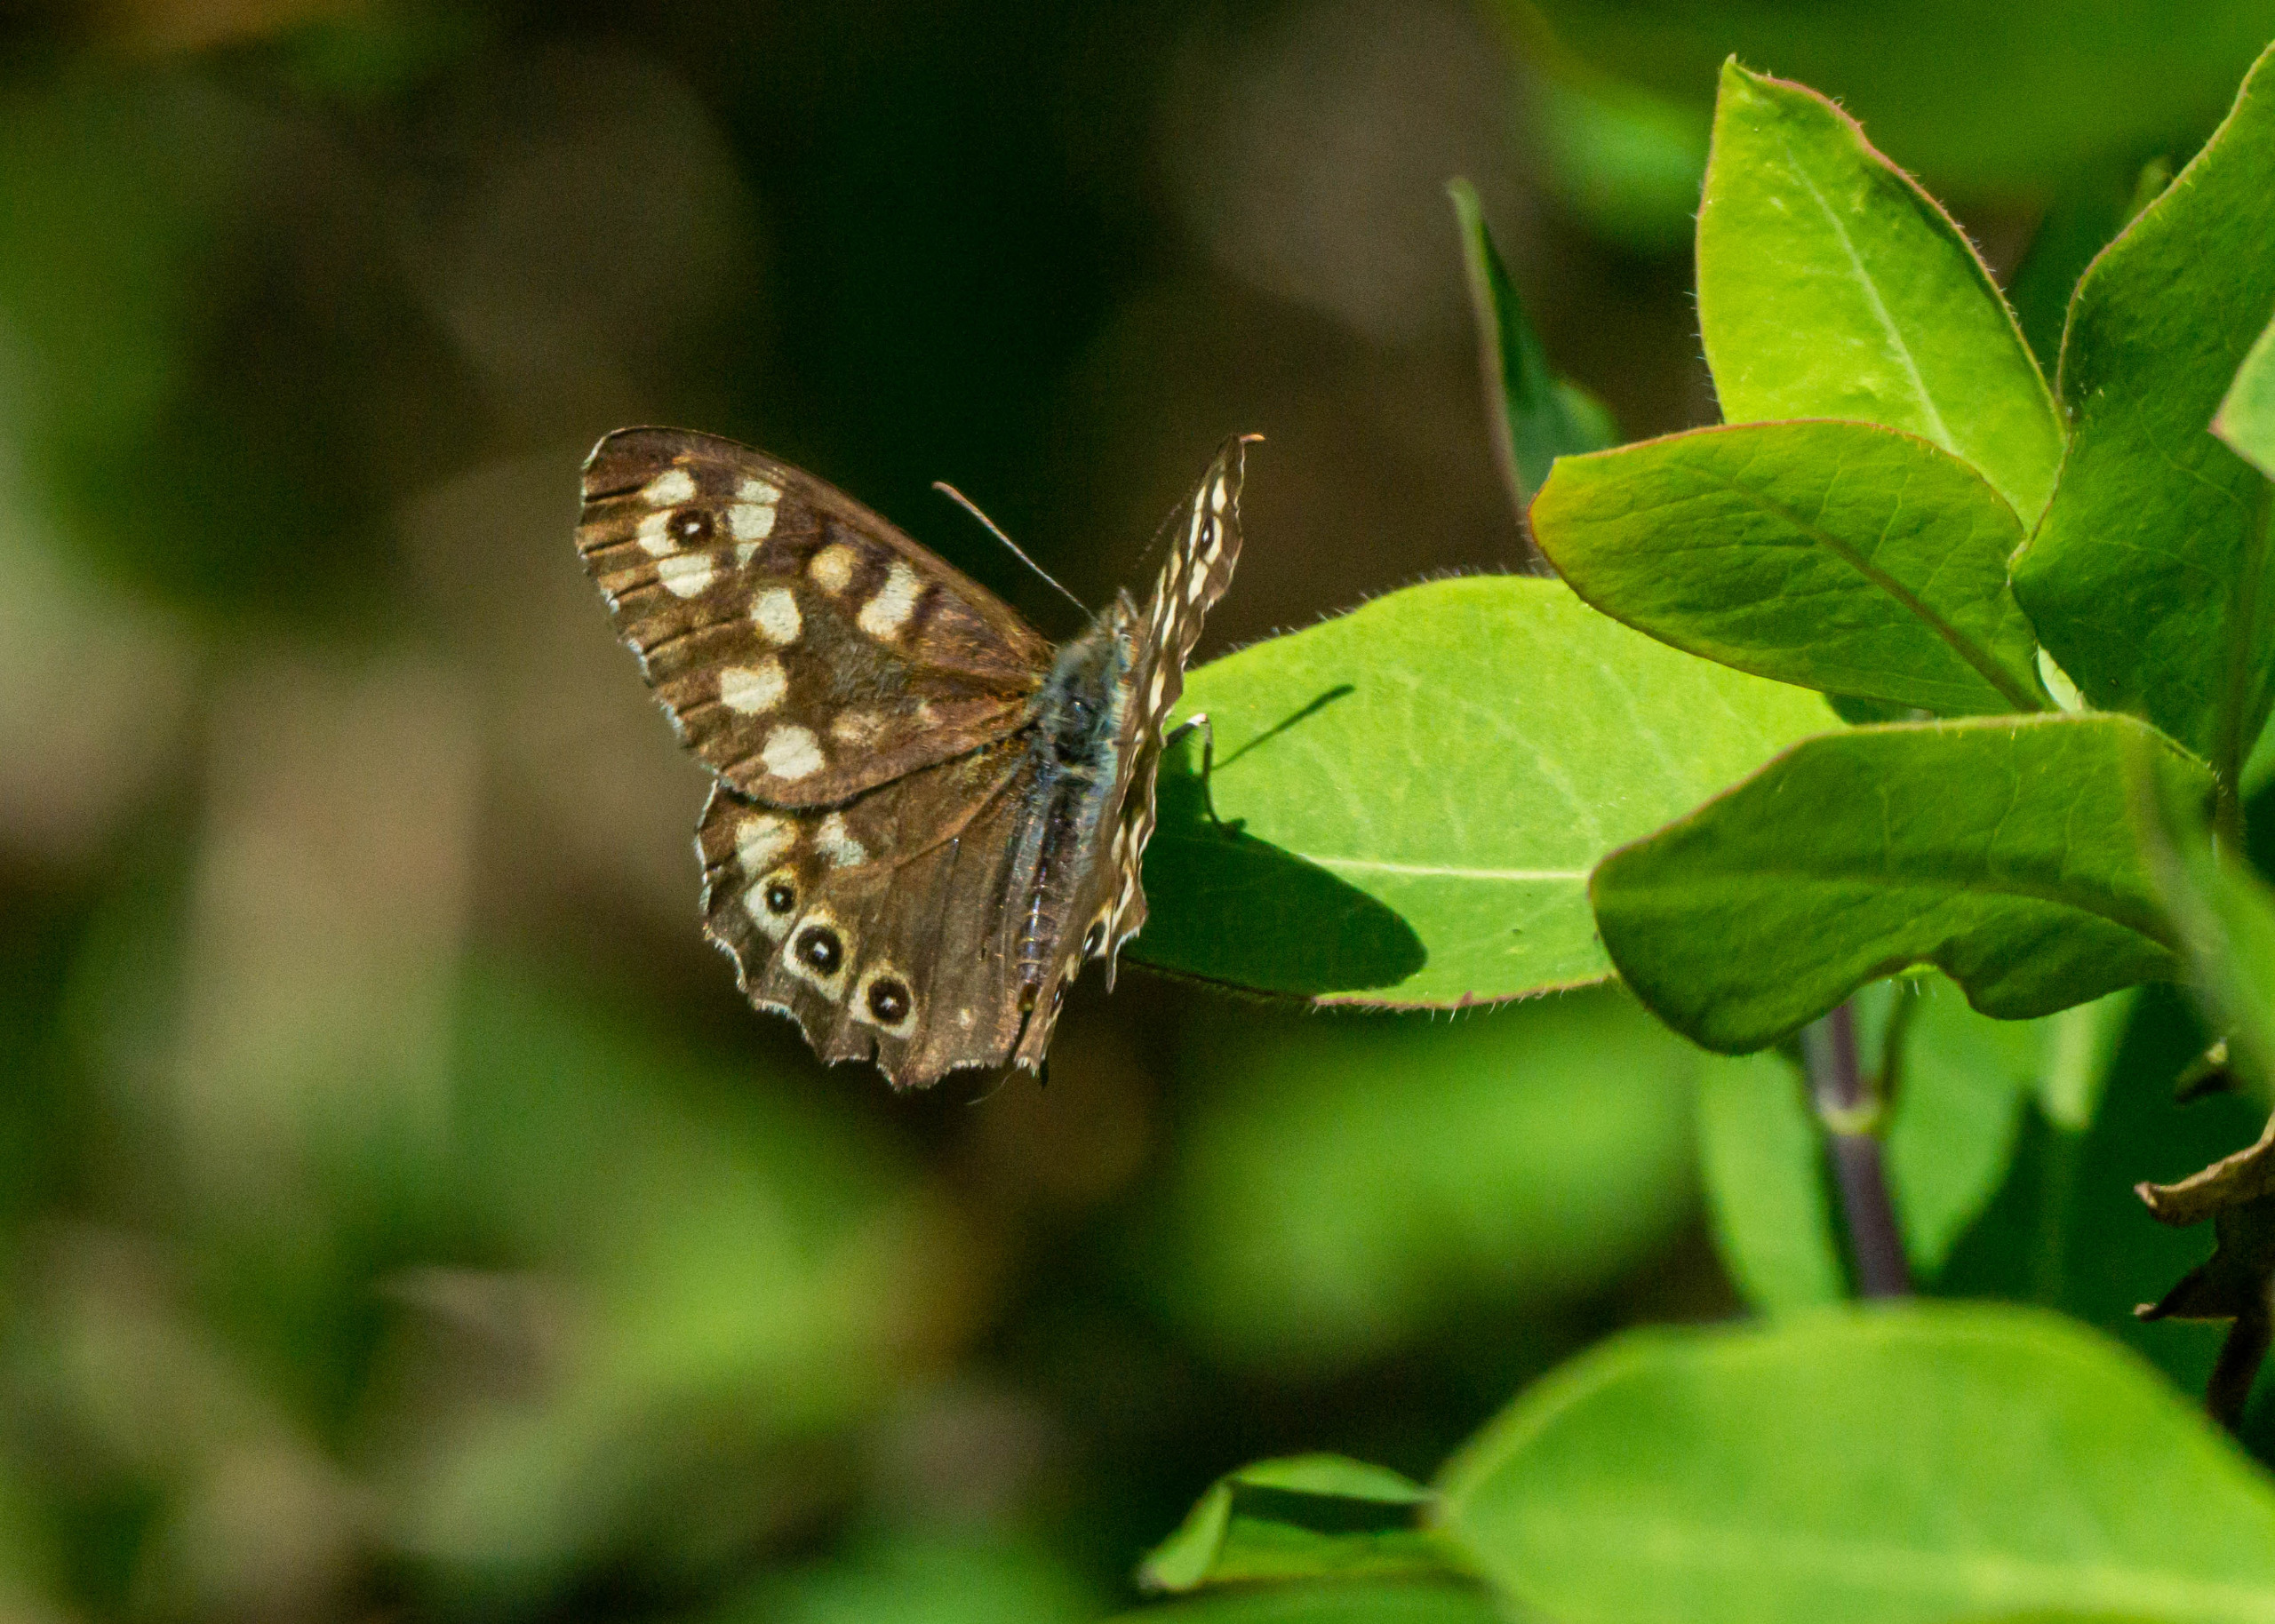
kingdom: Animalia
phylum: Arthropoda
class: Insecta
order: Lepidoptera
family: Nymphalidae
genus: Pararge
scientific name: Pararge aegeria
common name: Skovrandøje
